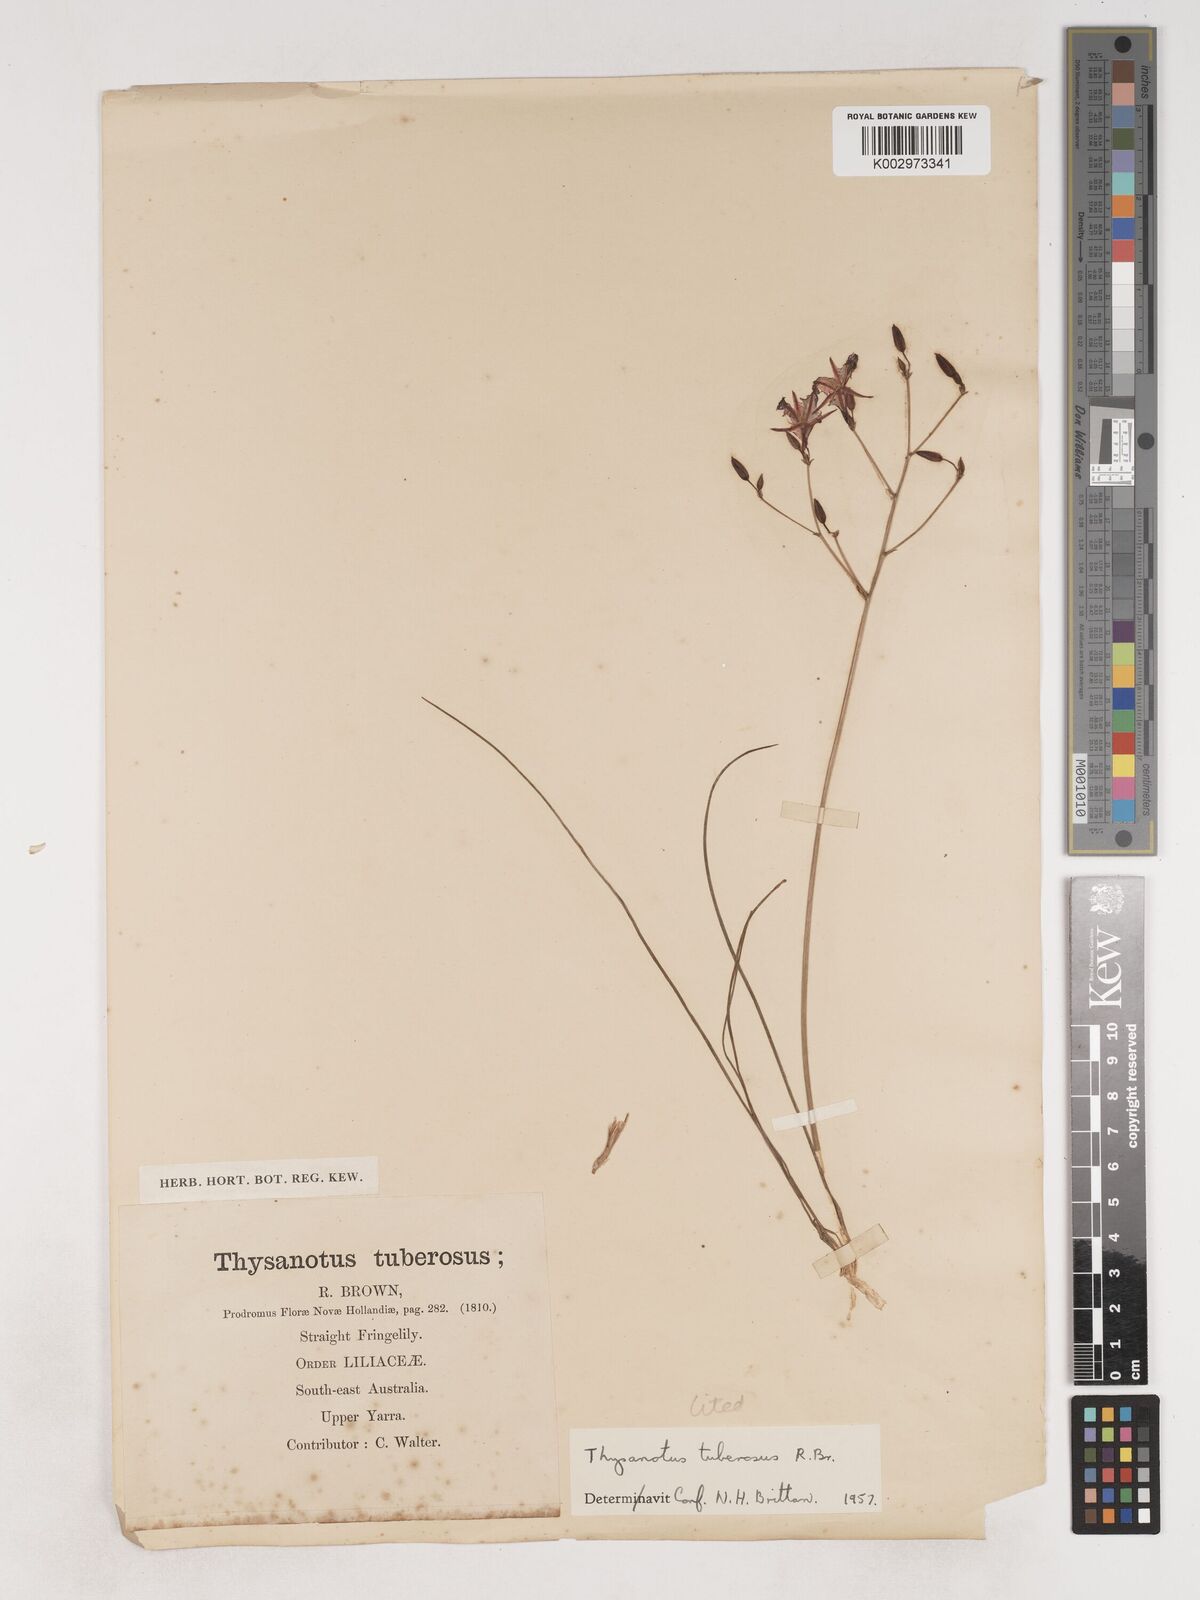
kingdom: Plantae
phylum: Tracheophyta
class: Liliopsida
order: Asparagales
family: Asparagaceae
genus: Thysanotus
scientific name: Thysanotus tuberosus
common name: Common fringed-lily
